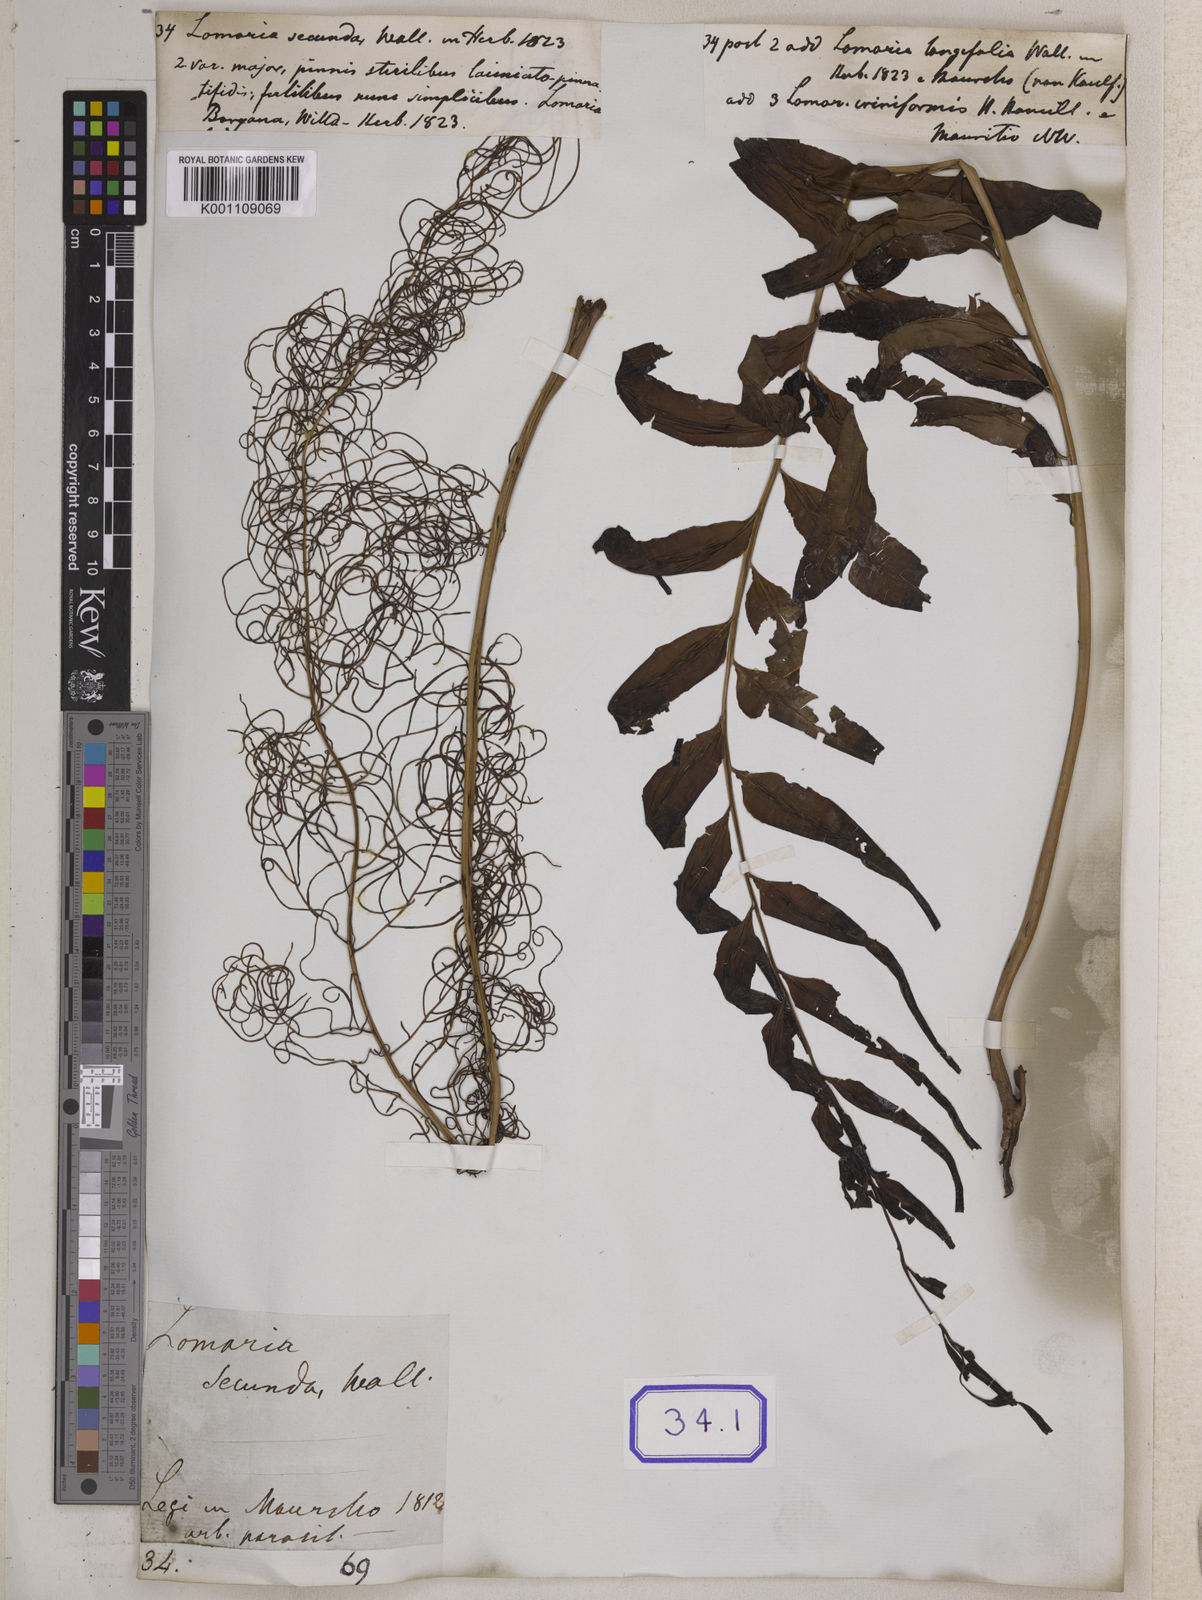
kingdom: Plantae
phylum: Tracheophyta
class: Polypodiopsida
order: Polypodiales
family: Blechnaceae
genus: Lomaria
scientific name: Lomaria
